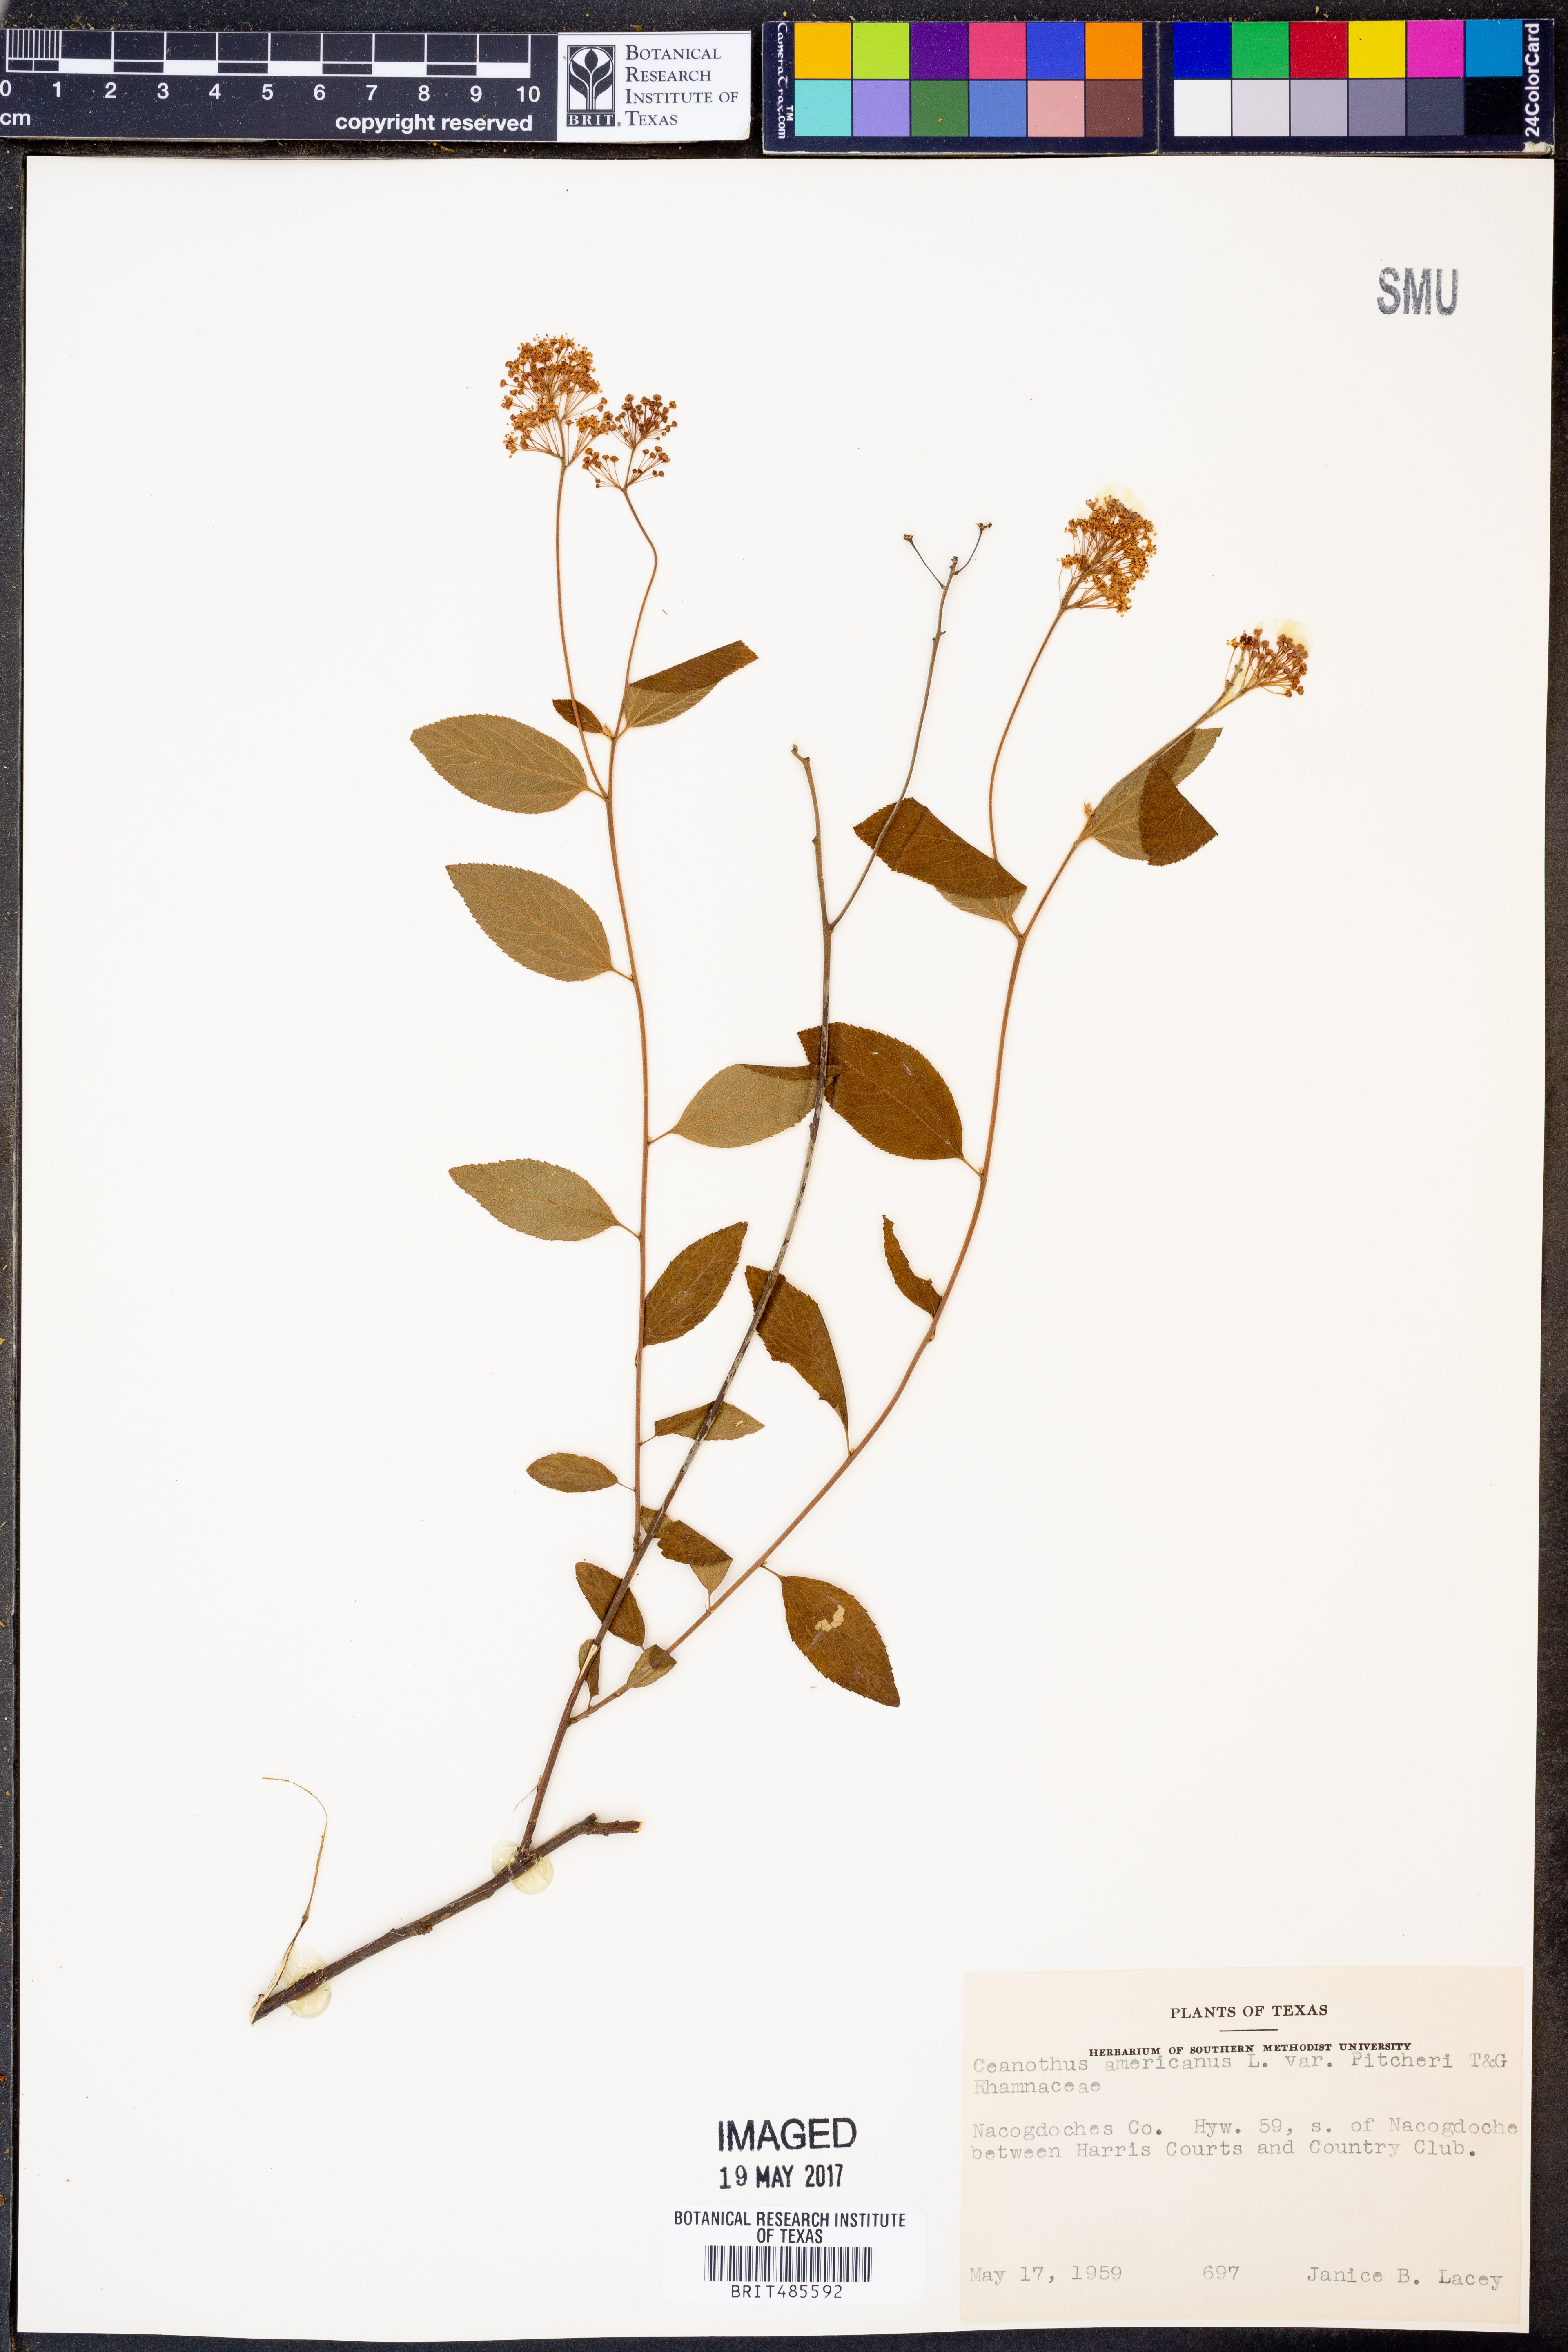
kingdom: Plantae
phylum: Tracheophyta
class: Magnoliopsida
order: Rosales
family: Rhamnaceae
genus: Ceanothus
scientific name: Ceanothus americanus
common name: Redroot
